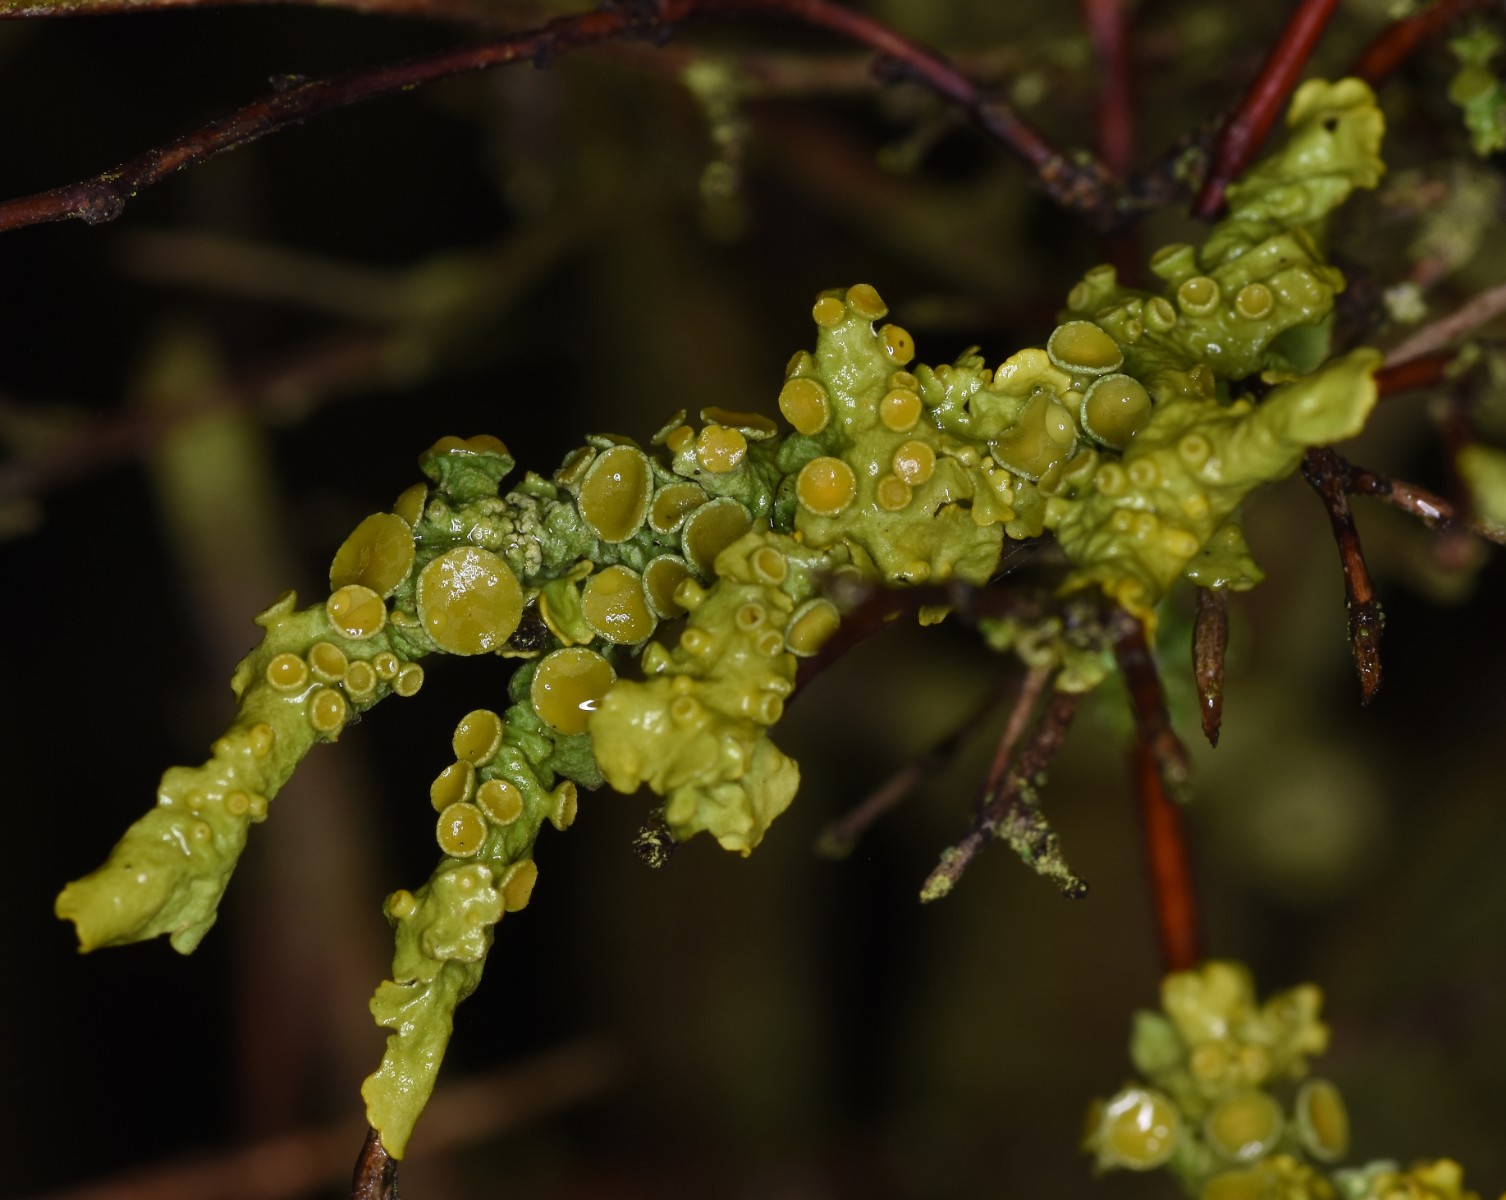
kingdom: Fungi
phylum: Ascomycota
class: Lecanoromycetes
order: Teloschistales
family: Teloschistaceae
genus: Xanthoria
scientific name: Xanthoria parietina
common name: almindelig væggelav
